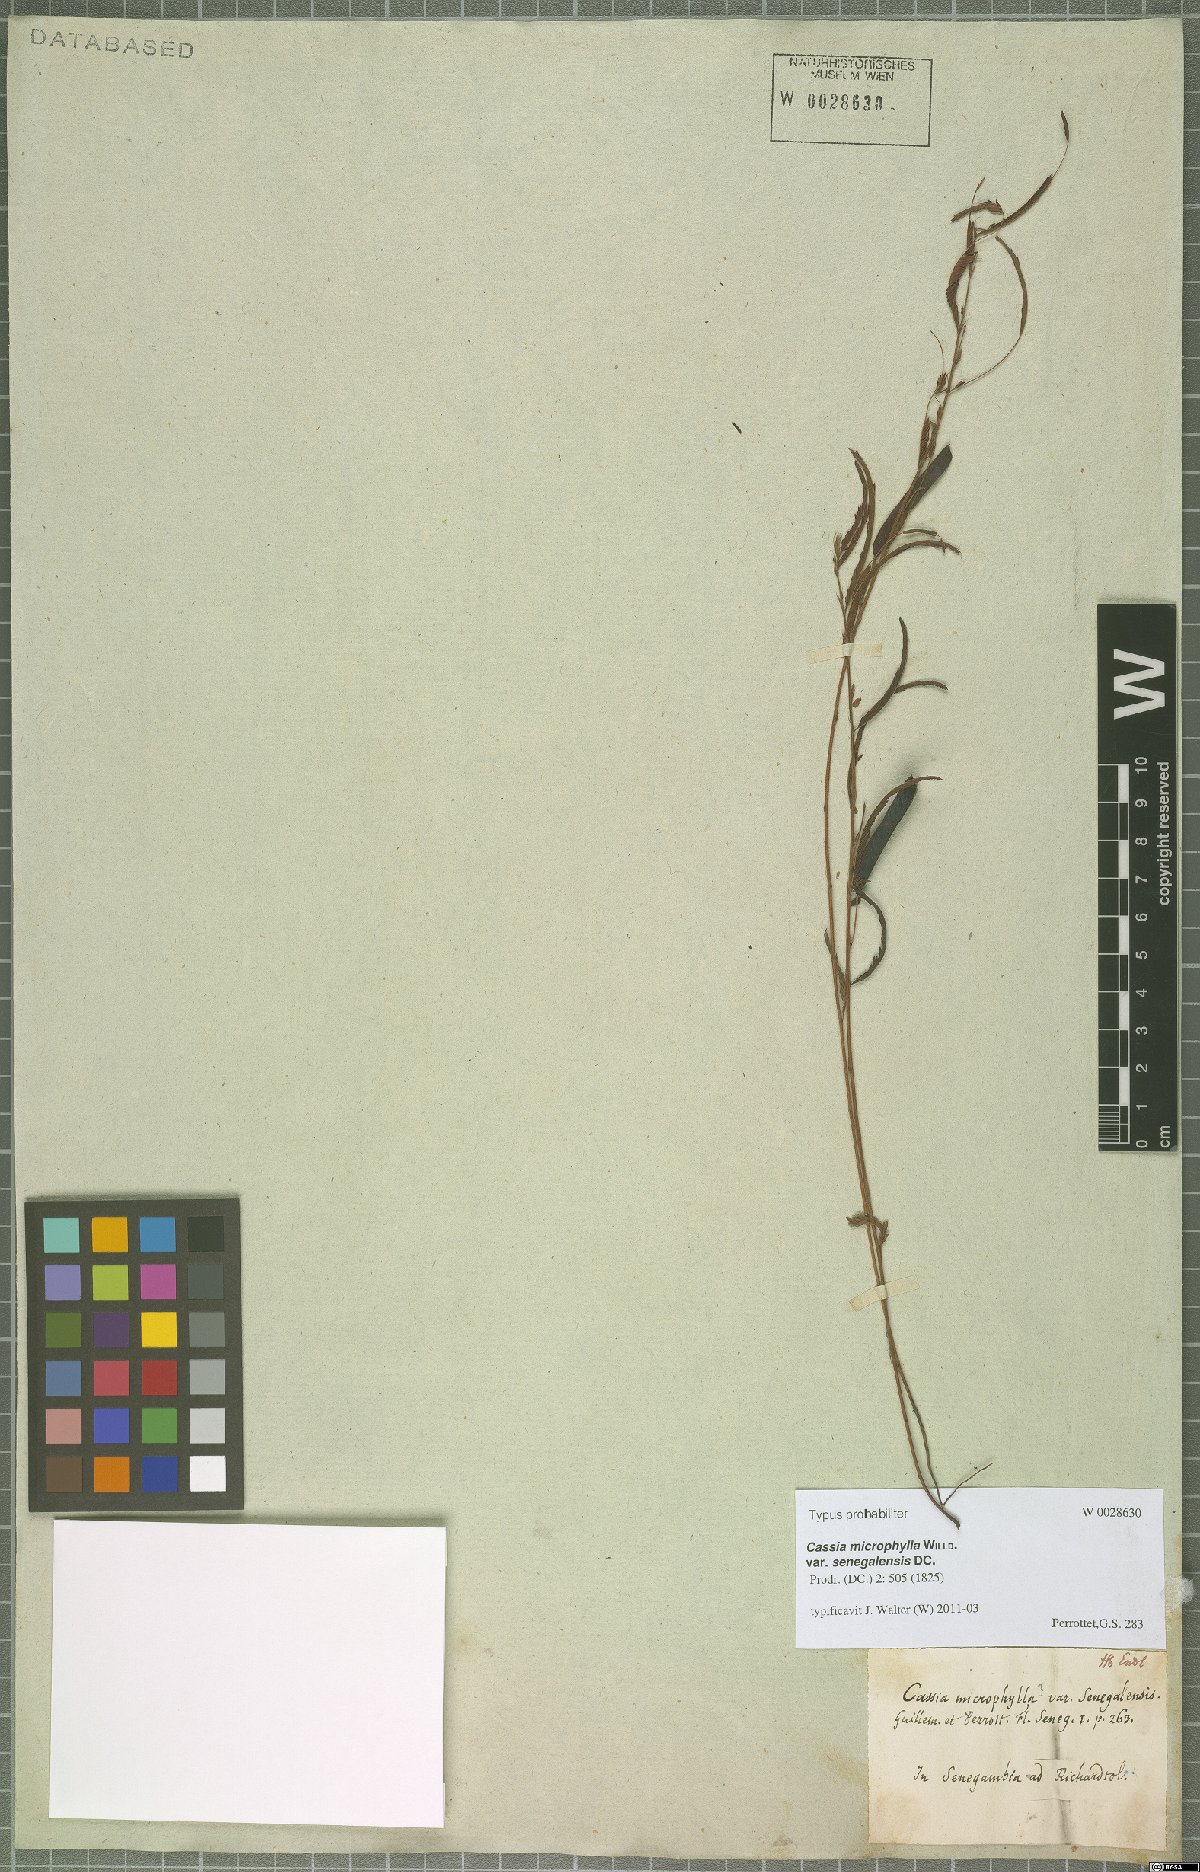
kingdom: Plantae
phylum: Tracheophyta
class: Magnoliopsida
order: Fabales
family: Fabaceae
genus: Chamaecrista
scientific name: Chamaecrista mimosoides
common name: Fish-bone cassia
